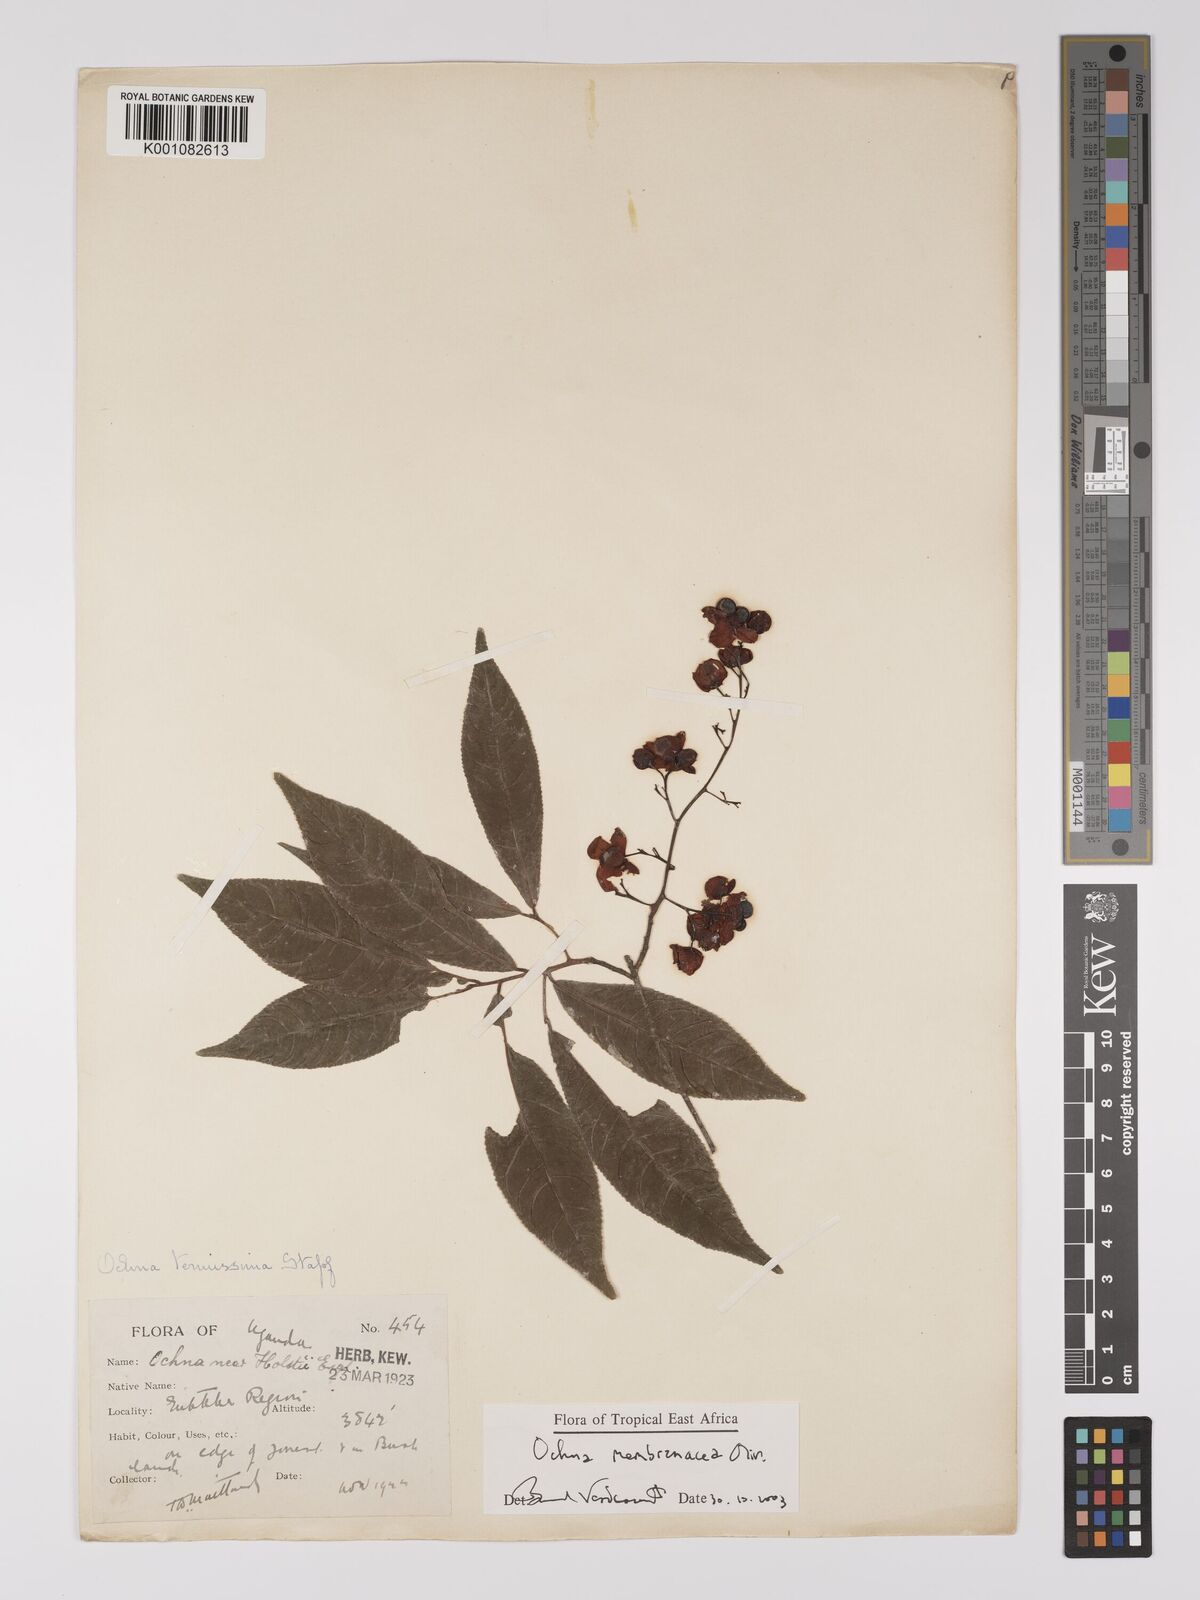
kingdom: Plantae
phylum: Tracheophyta
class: Magnoliopsida
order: Malpighiales
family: Ochnaceae
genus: Ochna
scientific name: Ochna membranacea
